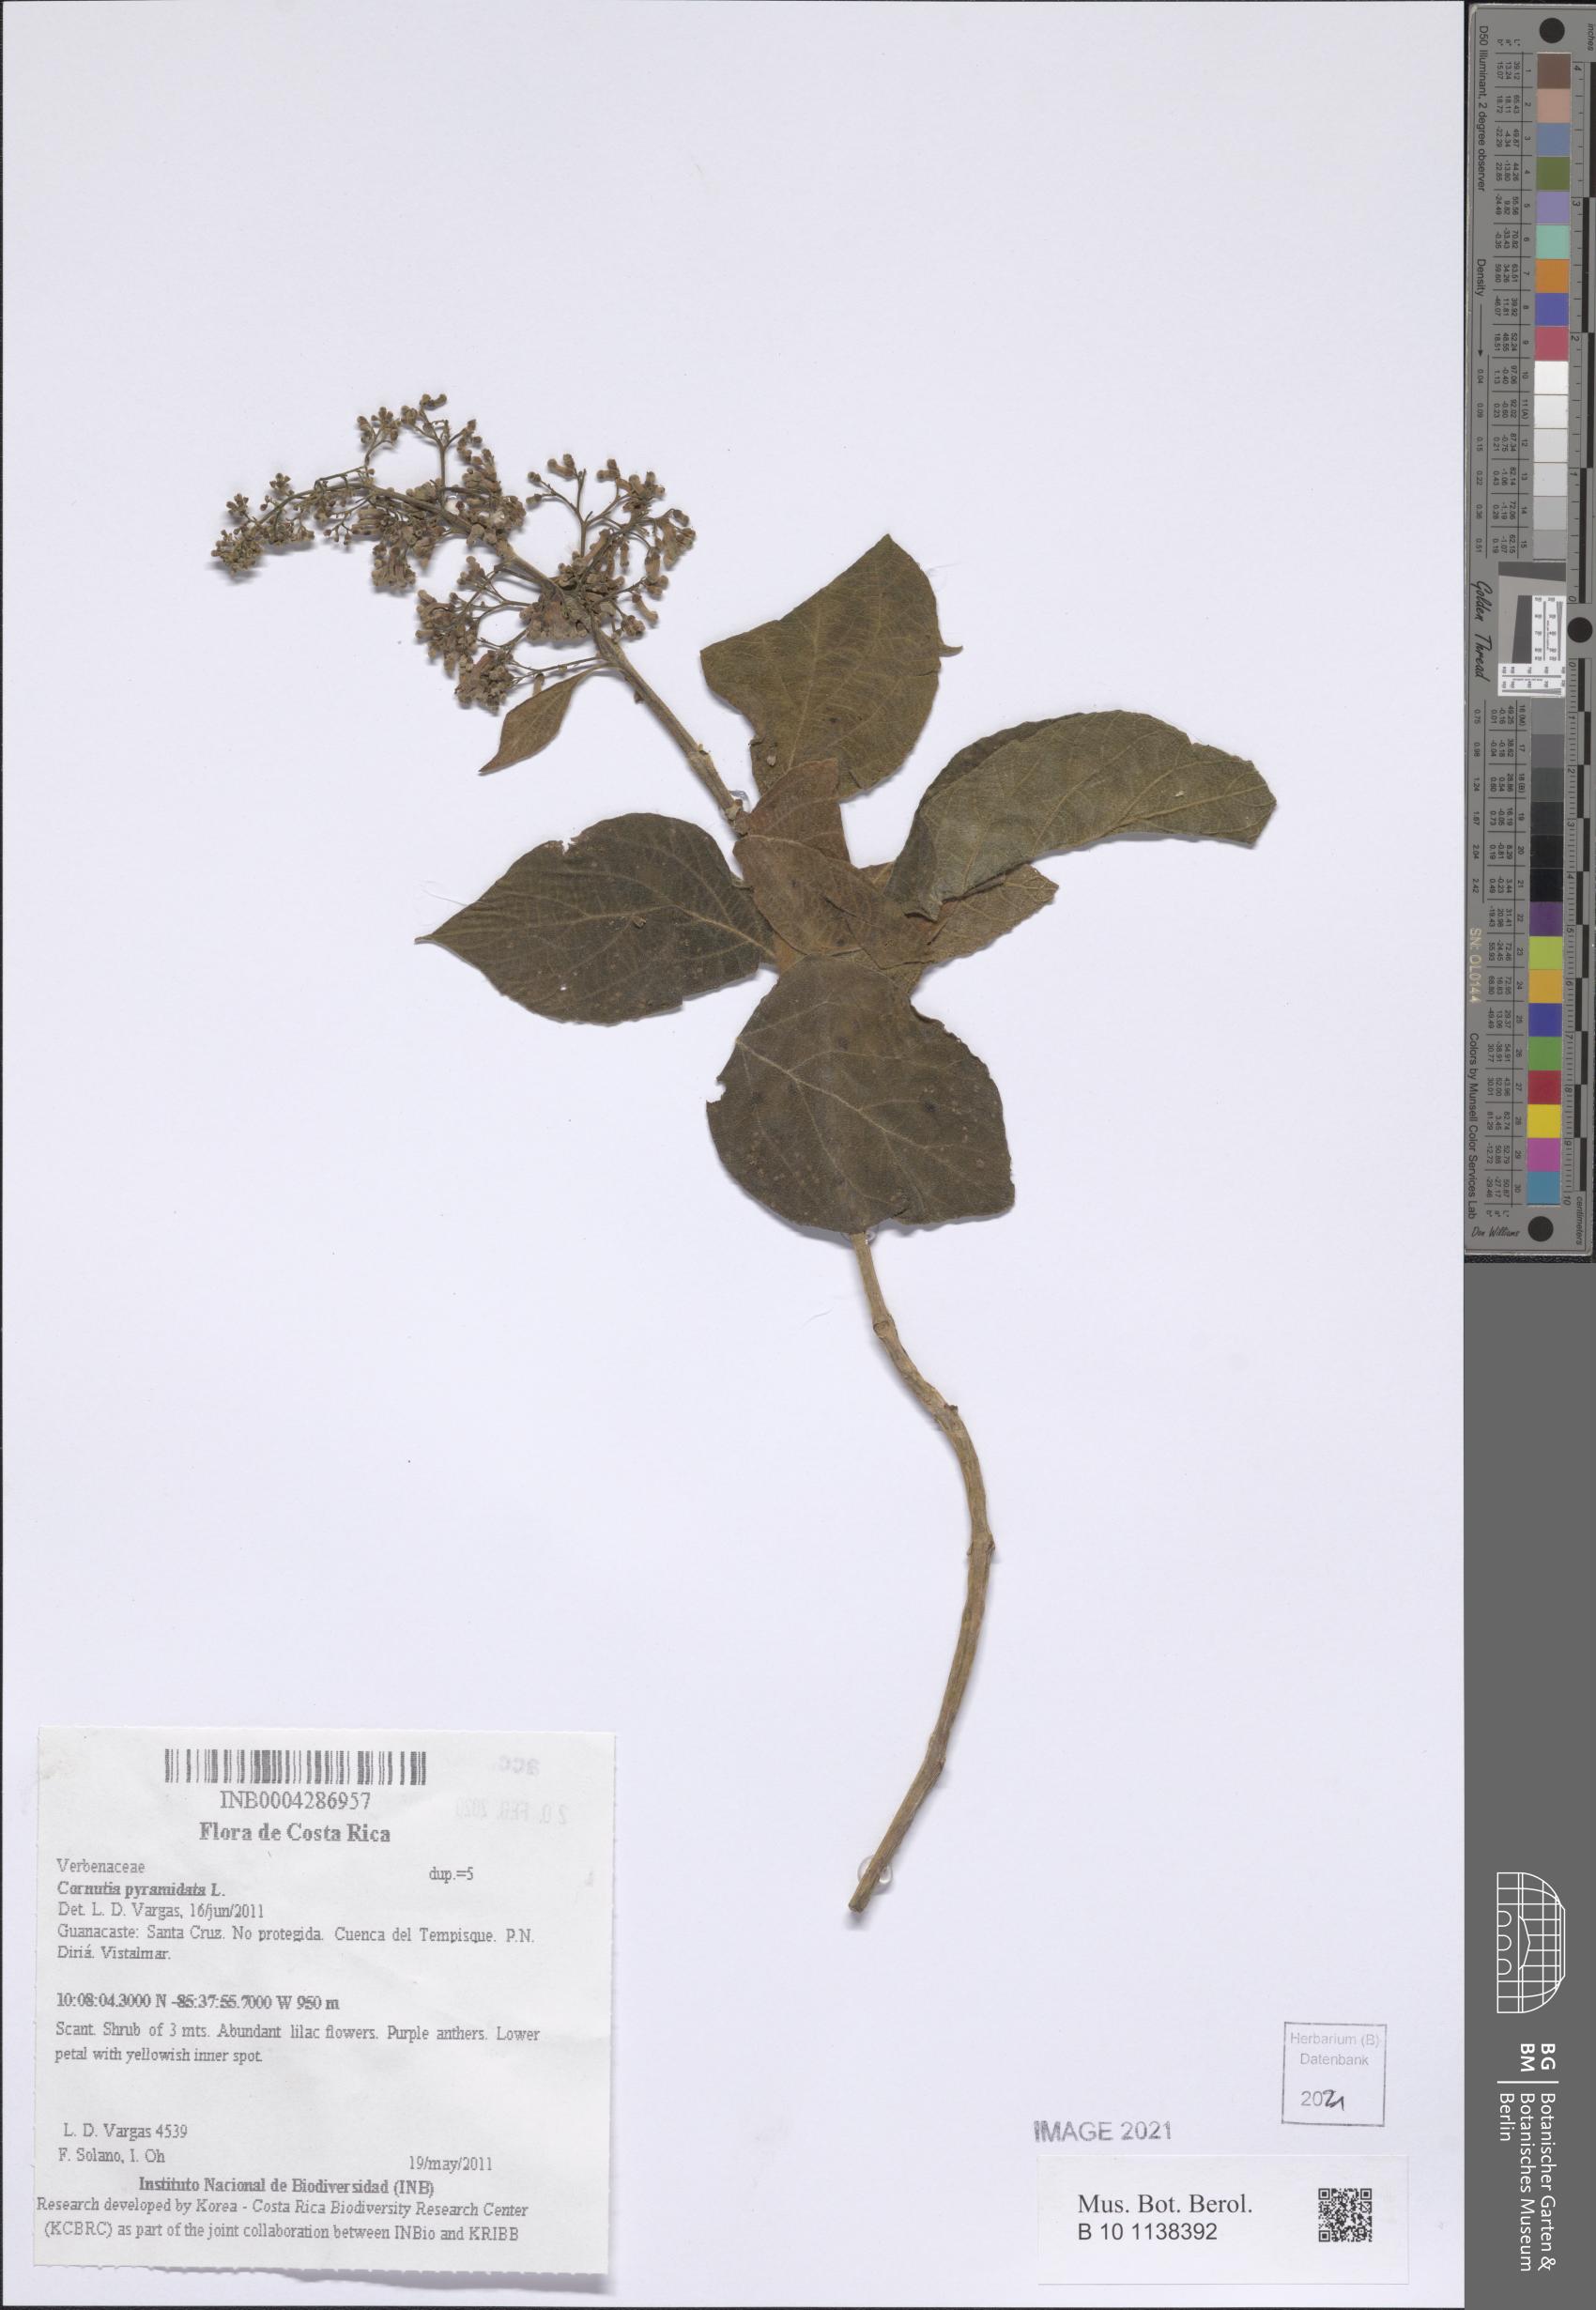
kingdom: Plantae
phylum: Tracheophyta
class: Magnoliopsida
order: Lamiales
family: Lamiaceae
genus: Cornutia
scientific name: Cornutia pyramidata
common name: Azulejo
